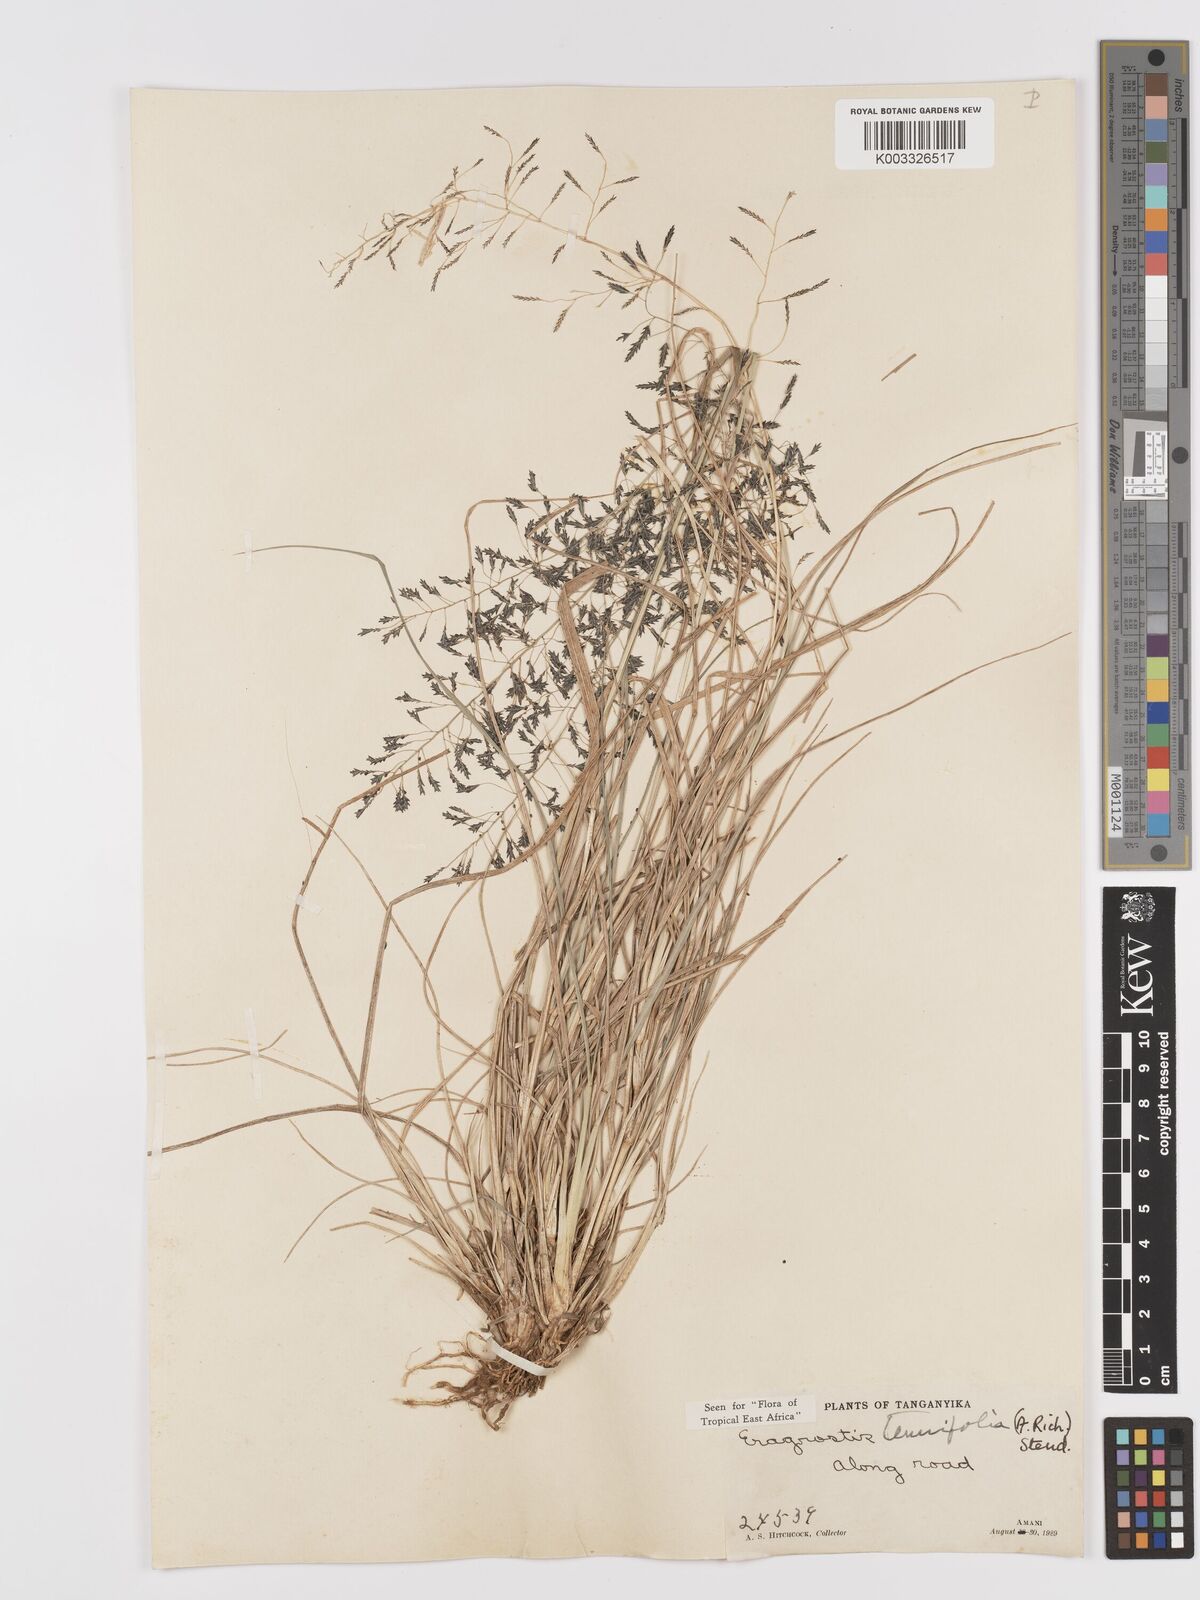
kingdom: Plantae
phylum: Tracheophyta
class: Liliopsida
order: Poales
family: Poaceae
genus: Eragrostis
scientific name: Eragrostis tenuifolia
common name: Elastic grass
